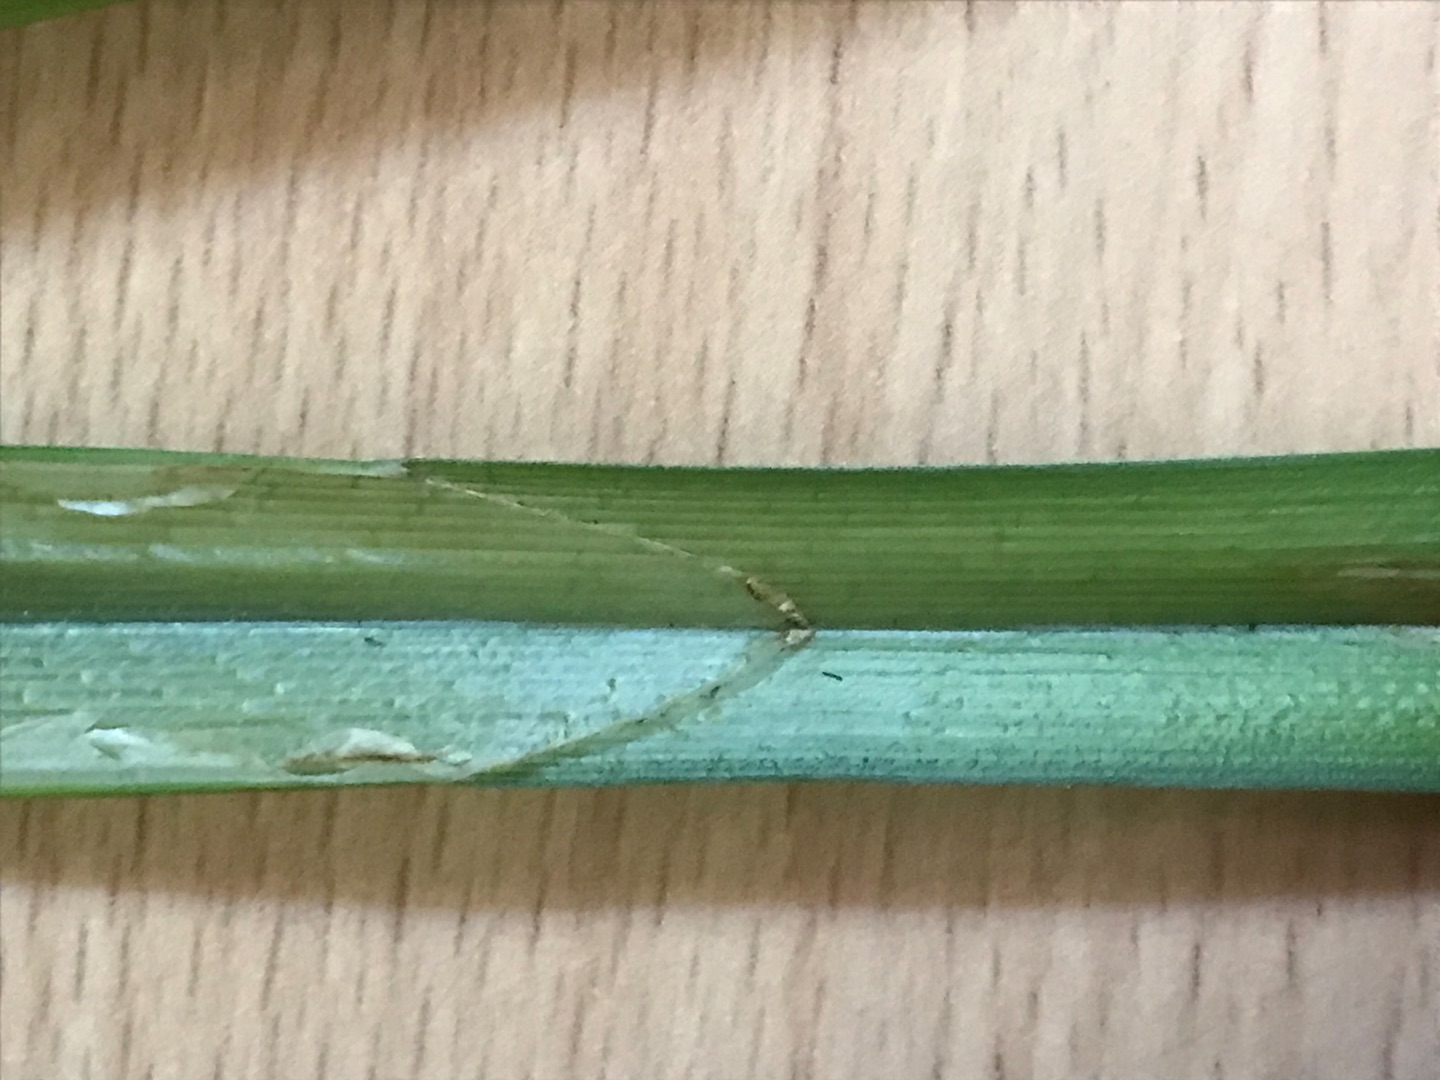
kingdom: Plantae
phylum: Tracheophyta
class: Liliopsida
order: Poales
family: Cyperaceae
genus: Carex
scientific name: Carex pseudocyperus
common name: Knippe-star
